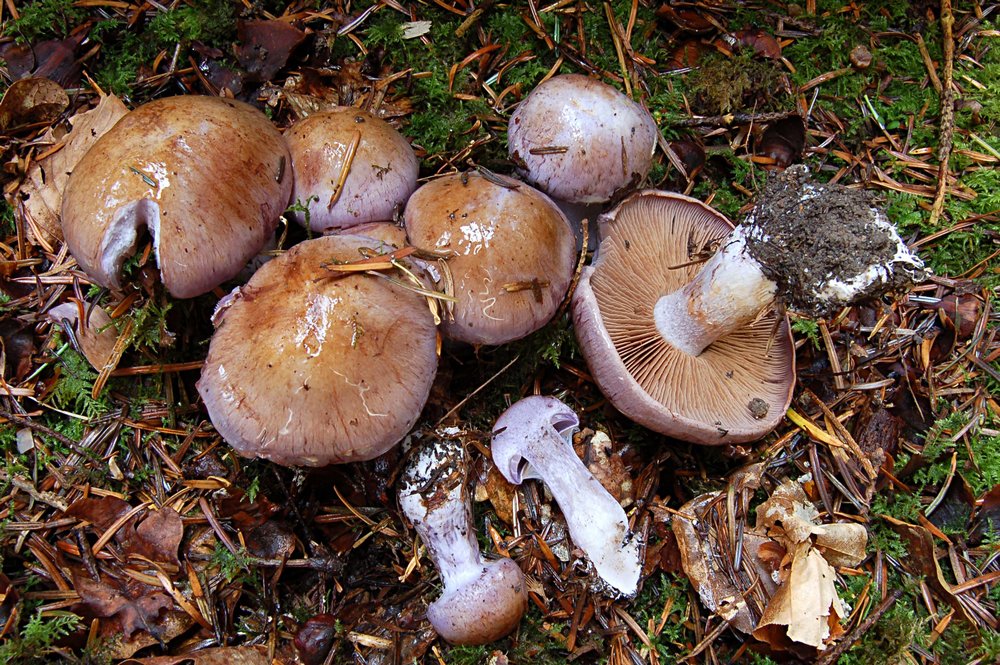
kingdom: Fungi
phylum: Basidiomycota
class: Agaricomycetes
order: Agaricales
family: Cortinariaceae
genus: Cortinarius
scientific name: Cortinarius largus
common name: violetrandet slørhat
